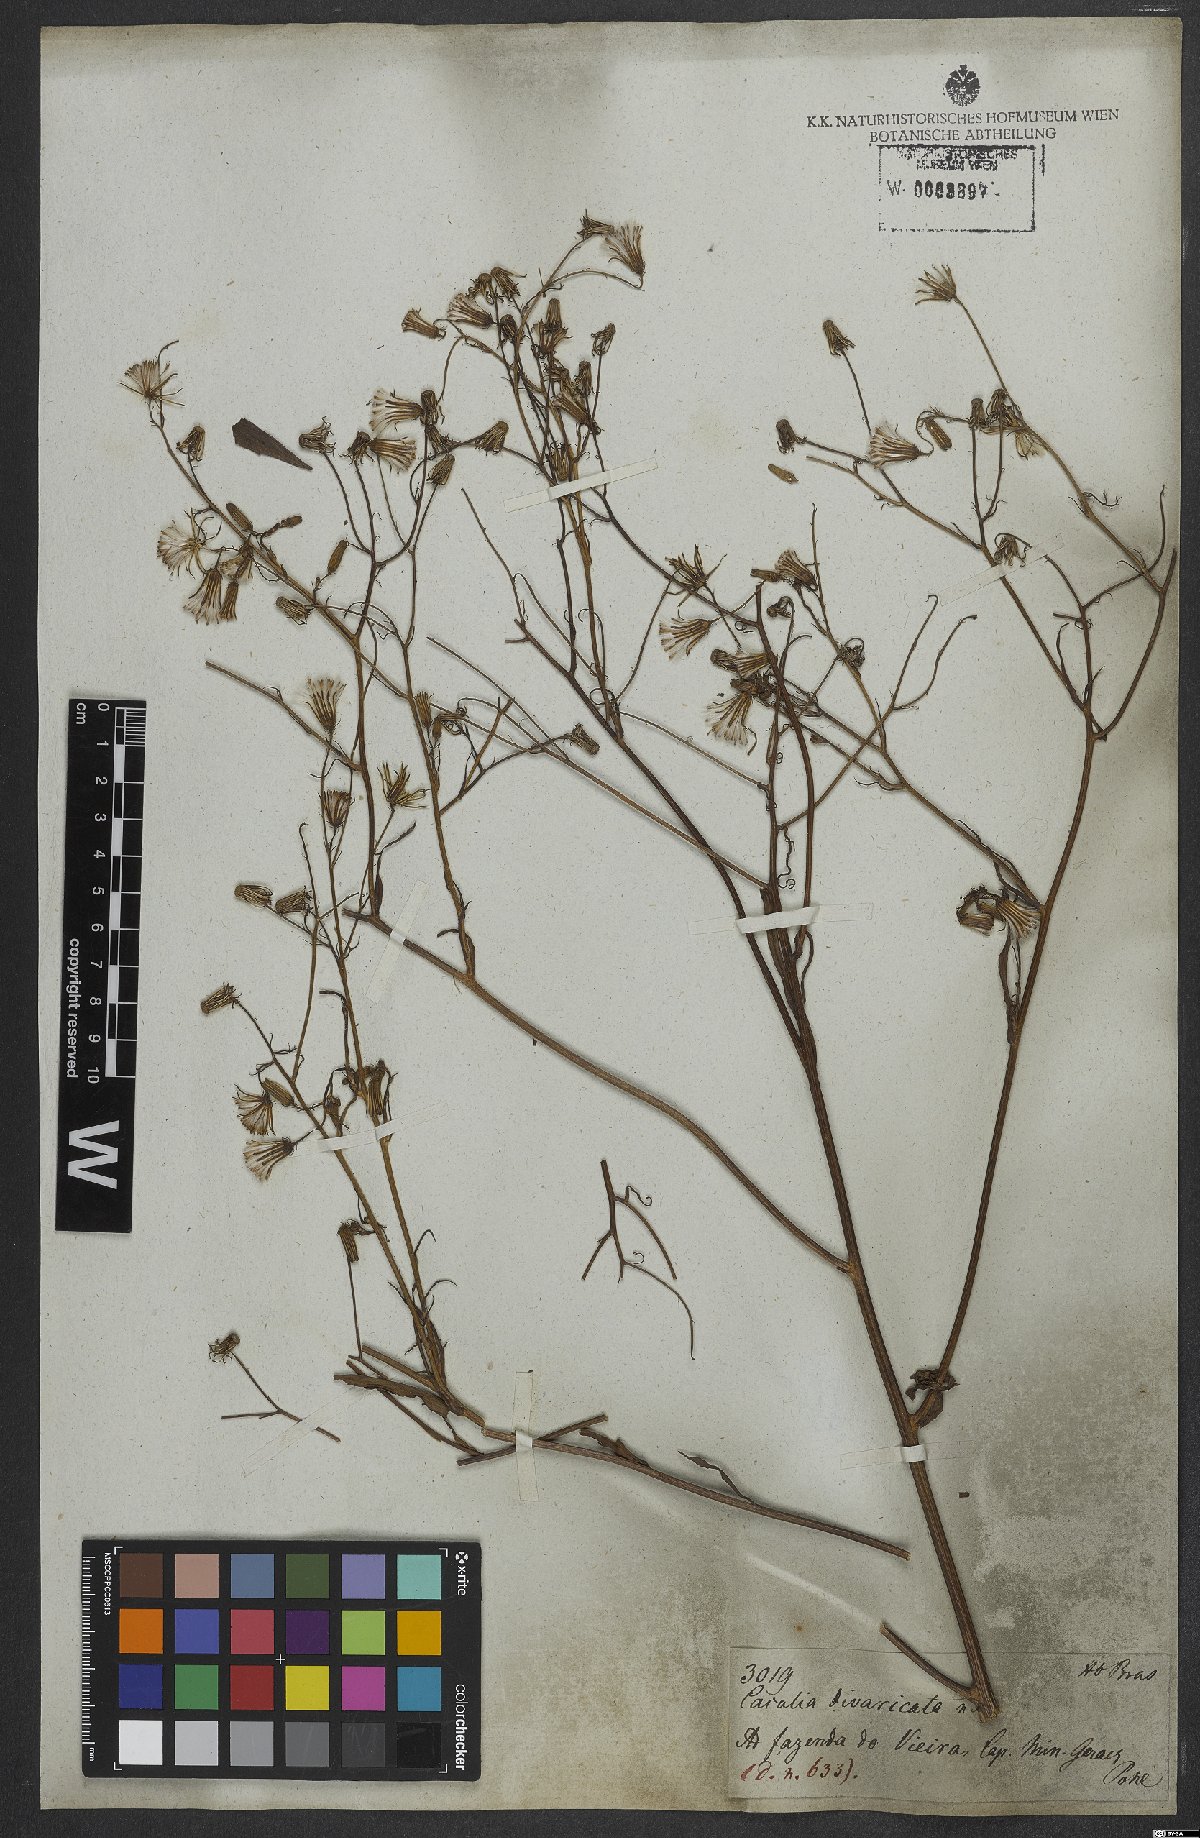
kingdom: Plantae
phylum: Tracheophyta
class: Magnoliopsida
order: Asterales
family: Asteraceae
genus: Erechtites
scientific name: Erechtites goyazensis
